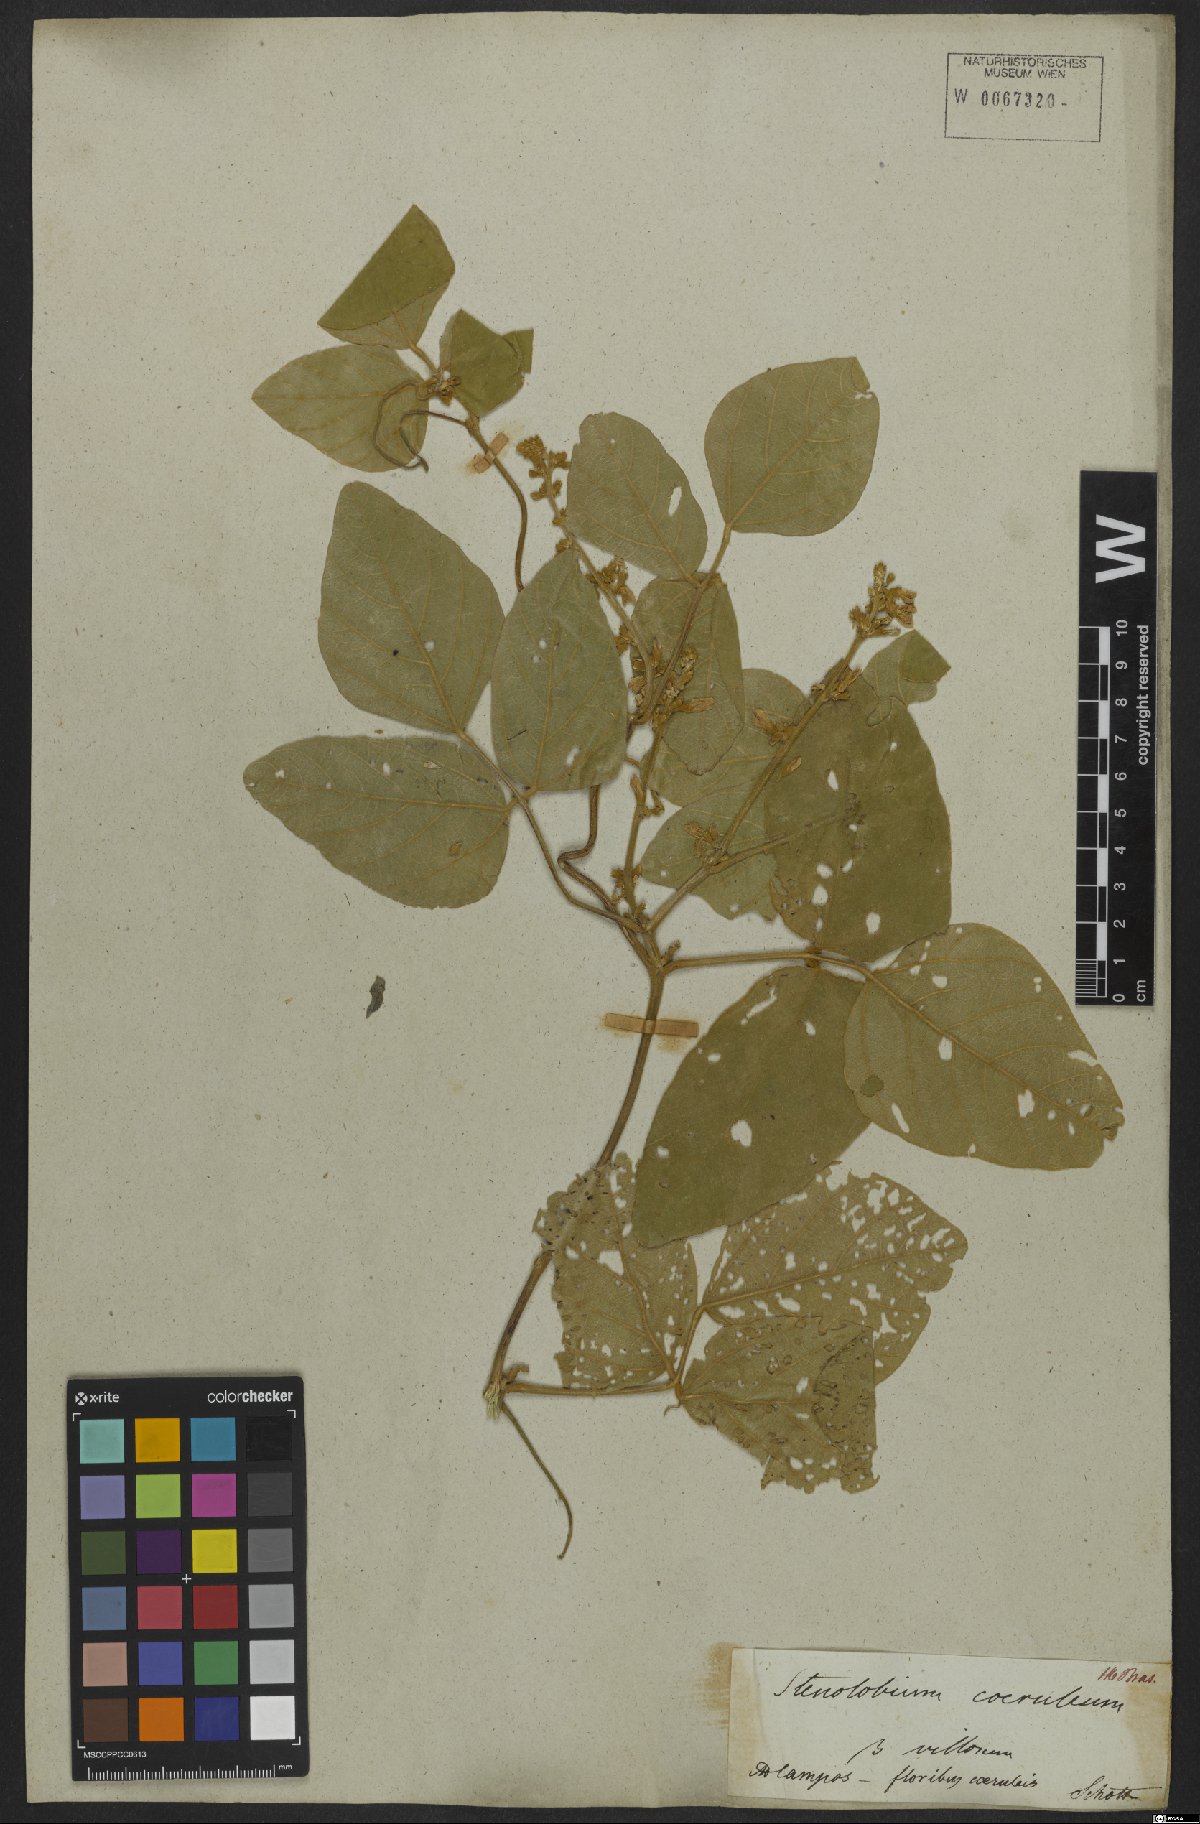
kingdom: Plantae
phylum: Tracheophyta
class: Magnoliopsida
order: Fabales
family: Fabaceae
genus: Calopogonium
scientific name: Calopogonium caeruleum
